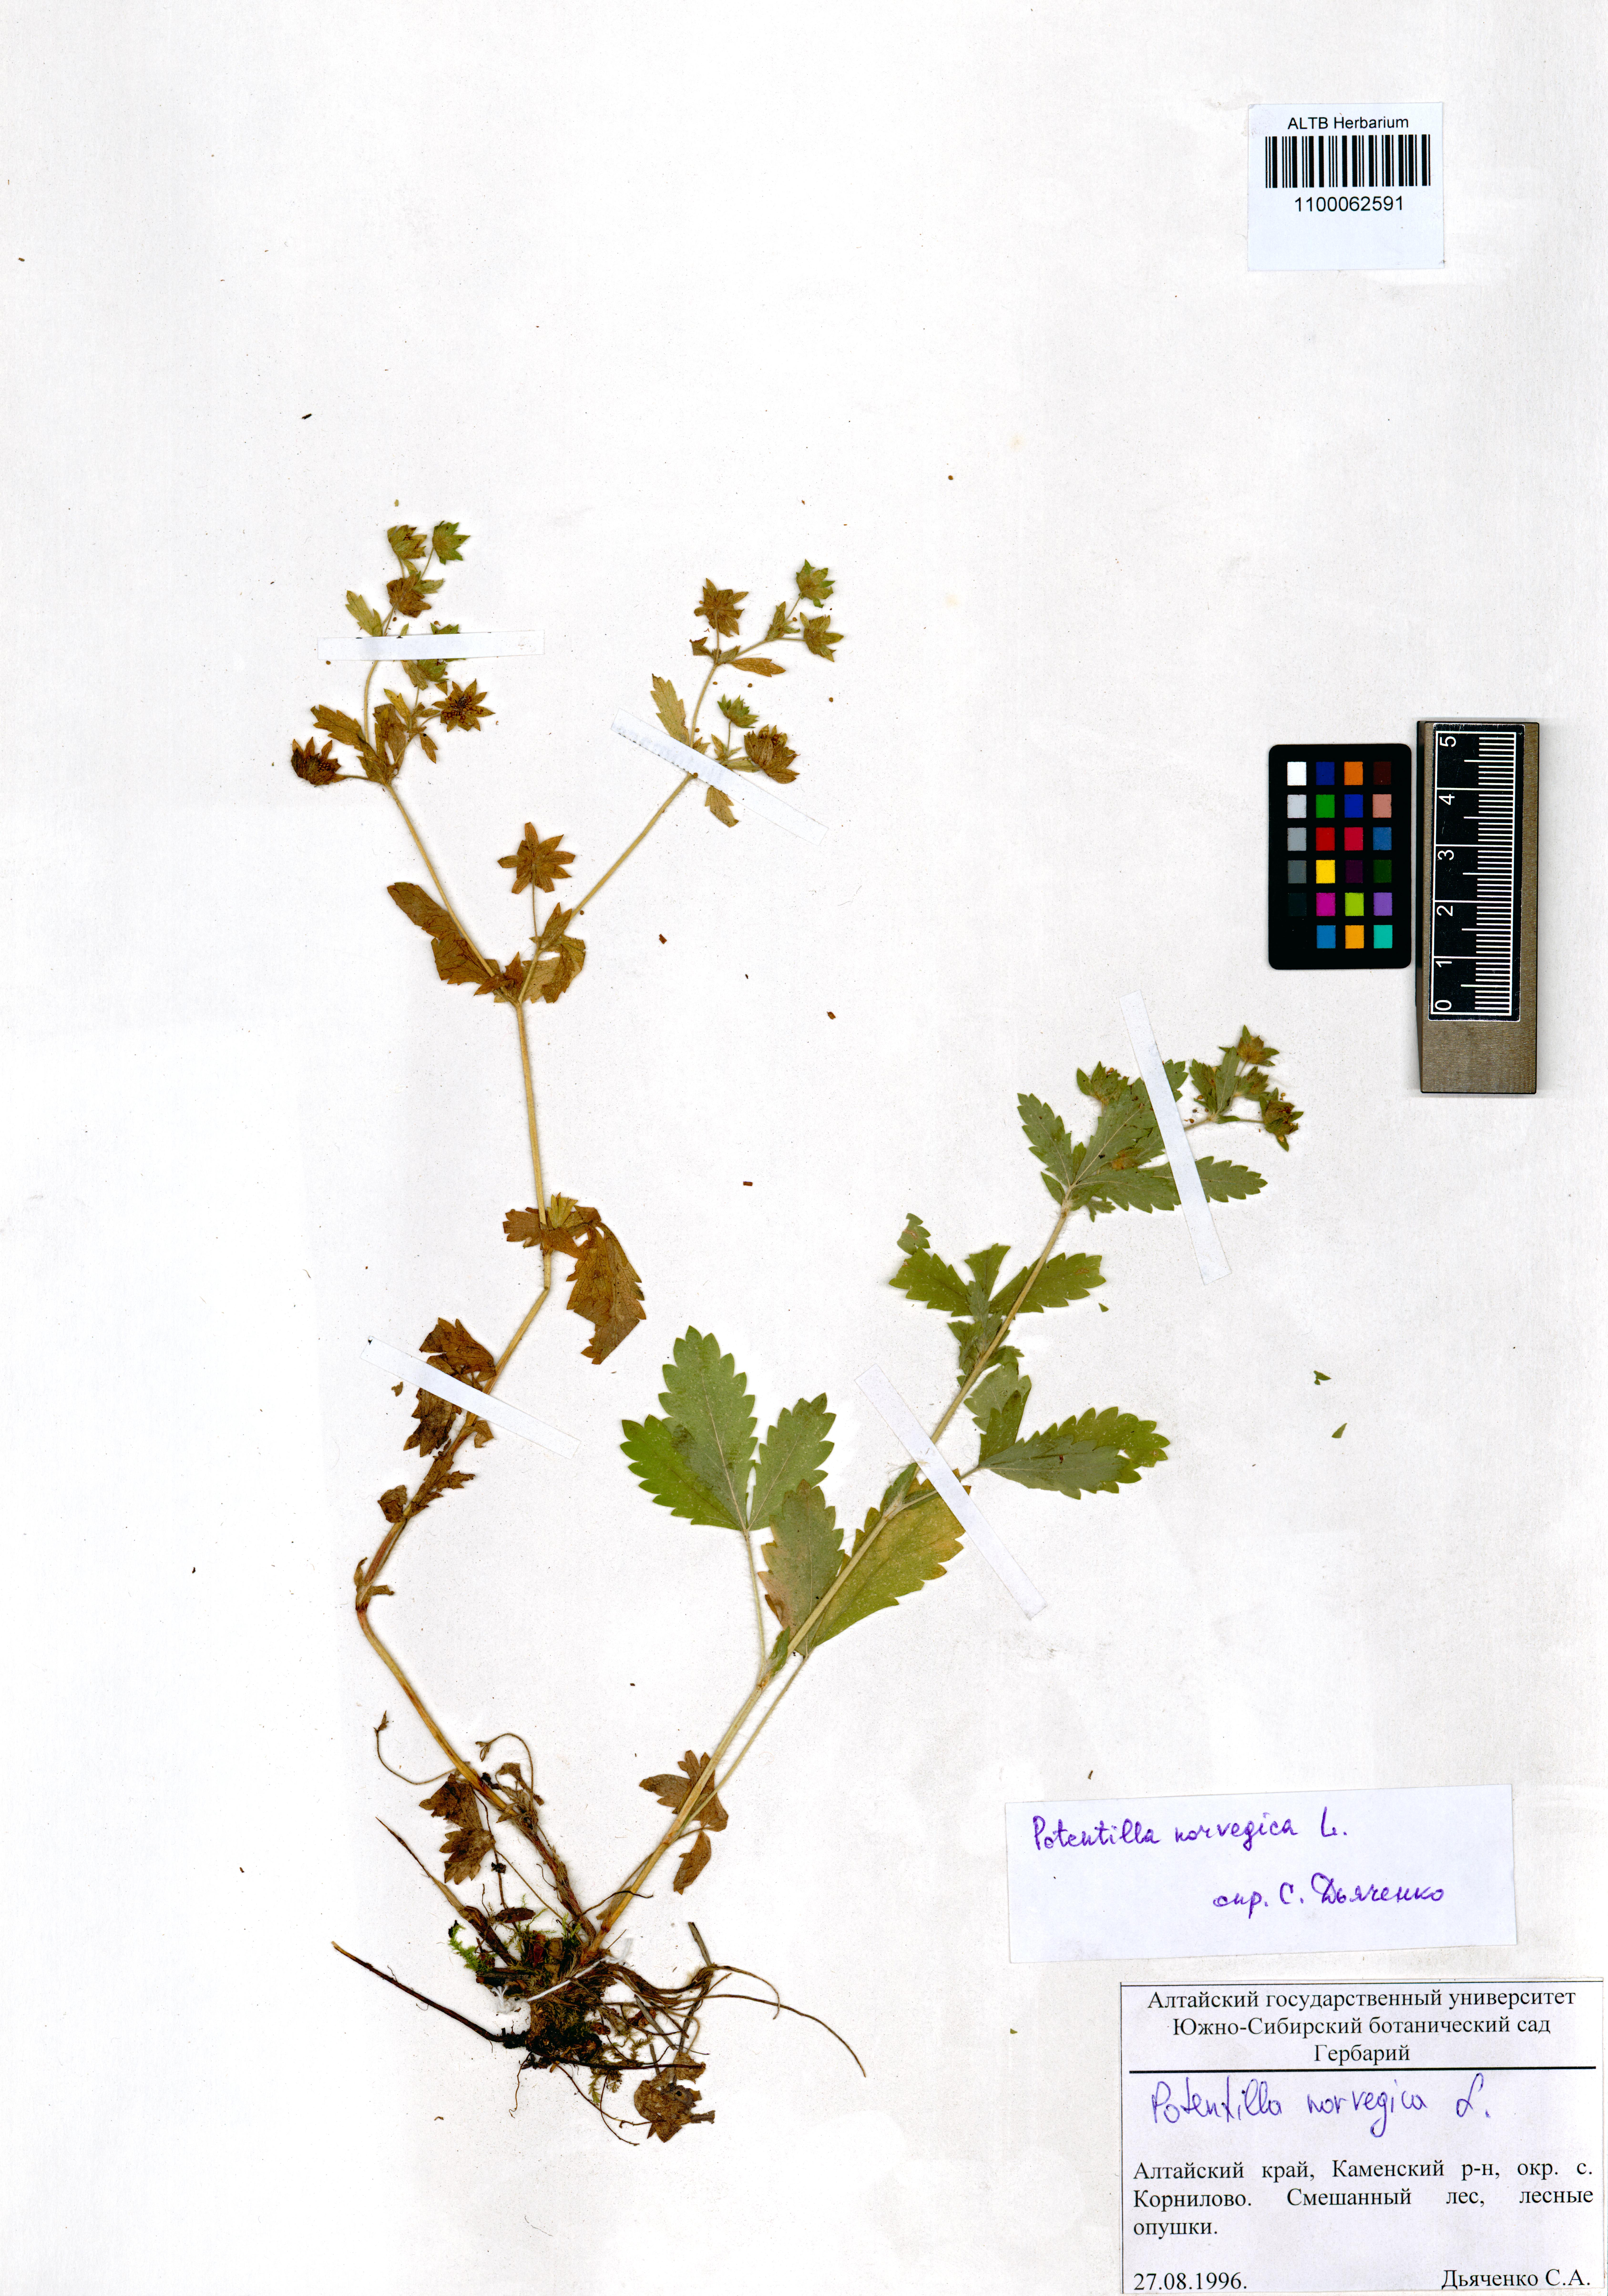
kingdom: Plantae
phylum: Tracheophyta
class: Magnoliopsida
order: Rosales
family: Rosaceae
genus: Potentilla
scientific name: Potentilla norvegica
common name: Ternate-leaved cinquefoil
